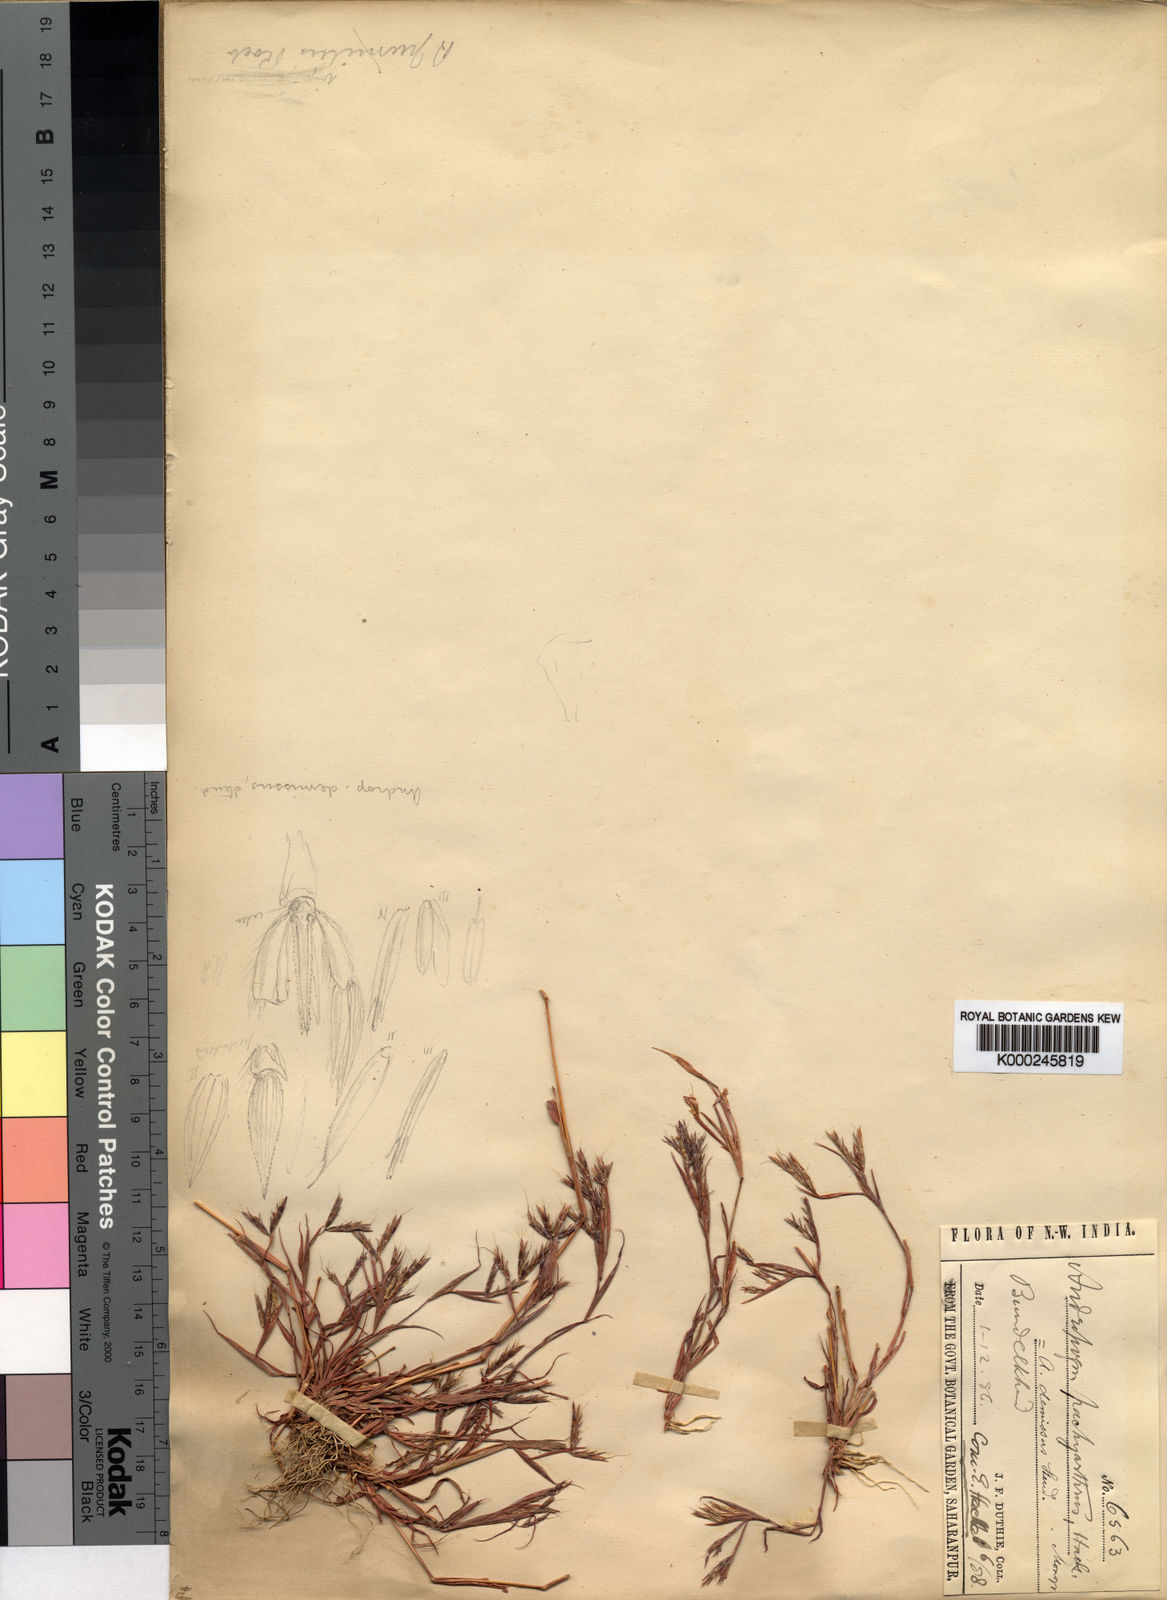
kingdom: Plantae
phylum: Tracheophyta
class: Liliopsida
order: Poales
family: Poaceae
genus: Andropogon
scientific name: Andropogon pumilus
